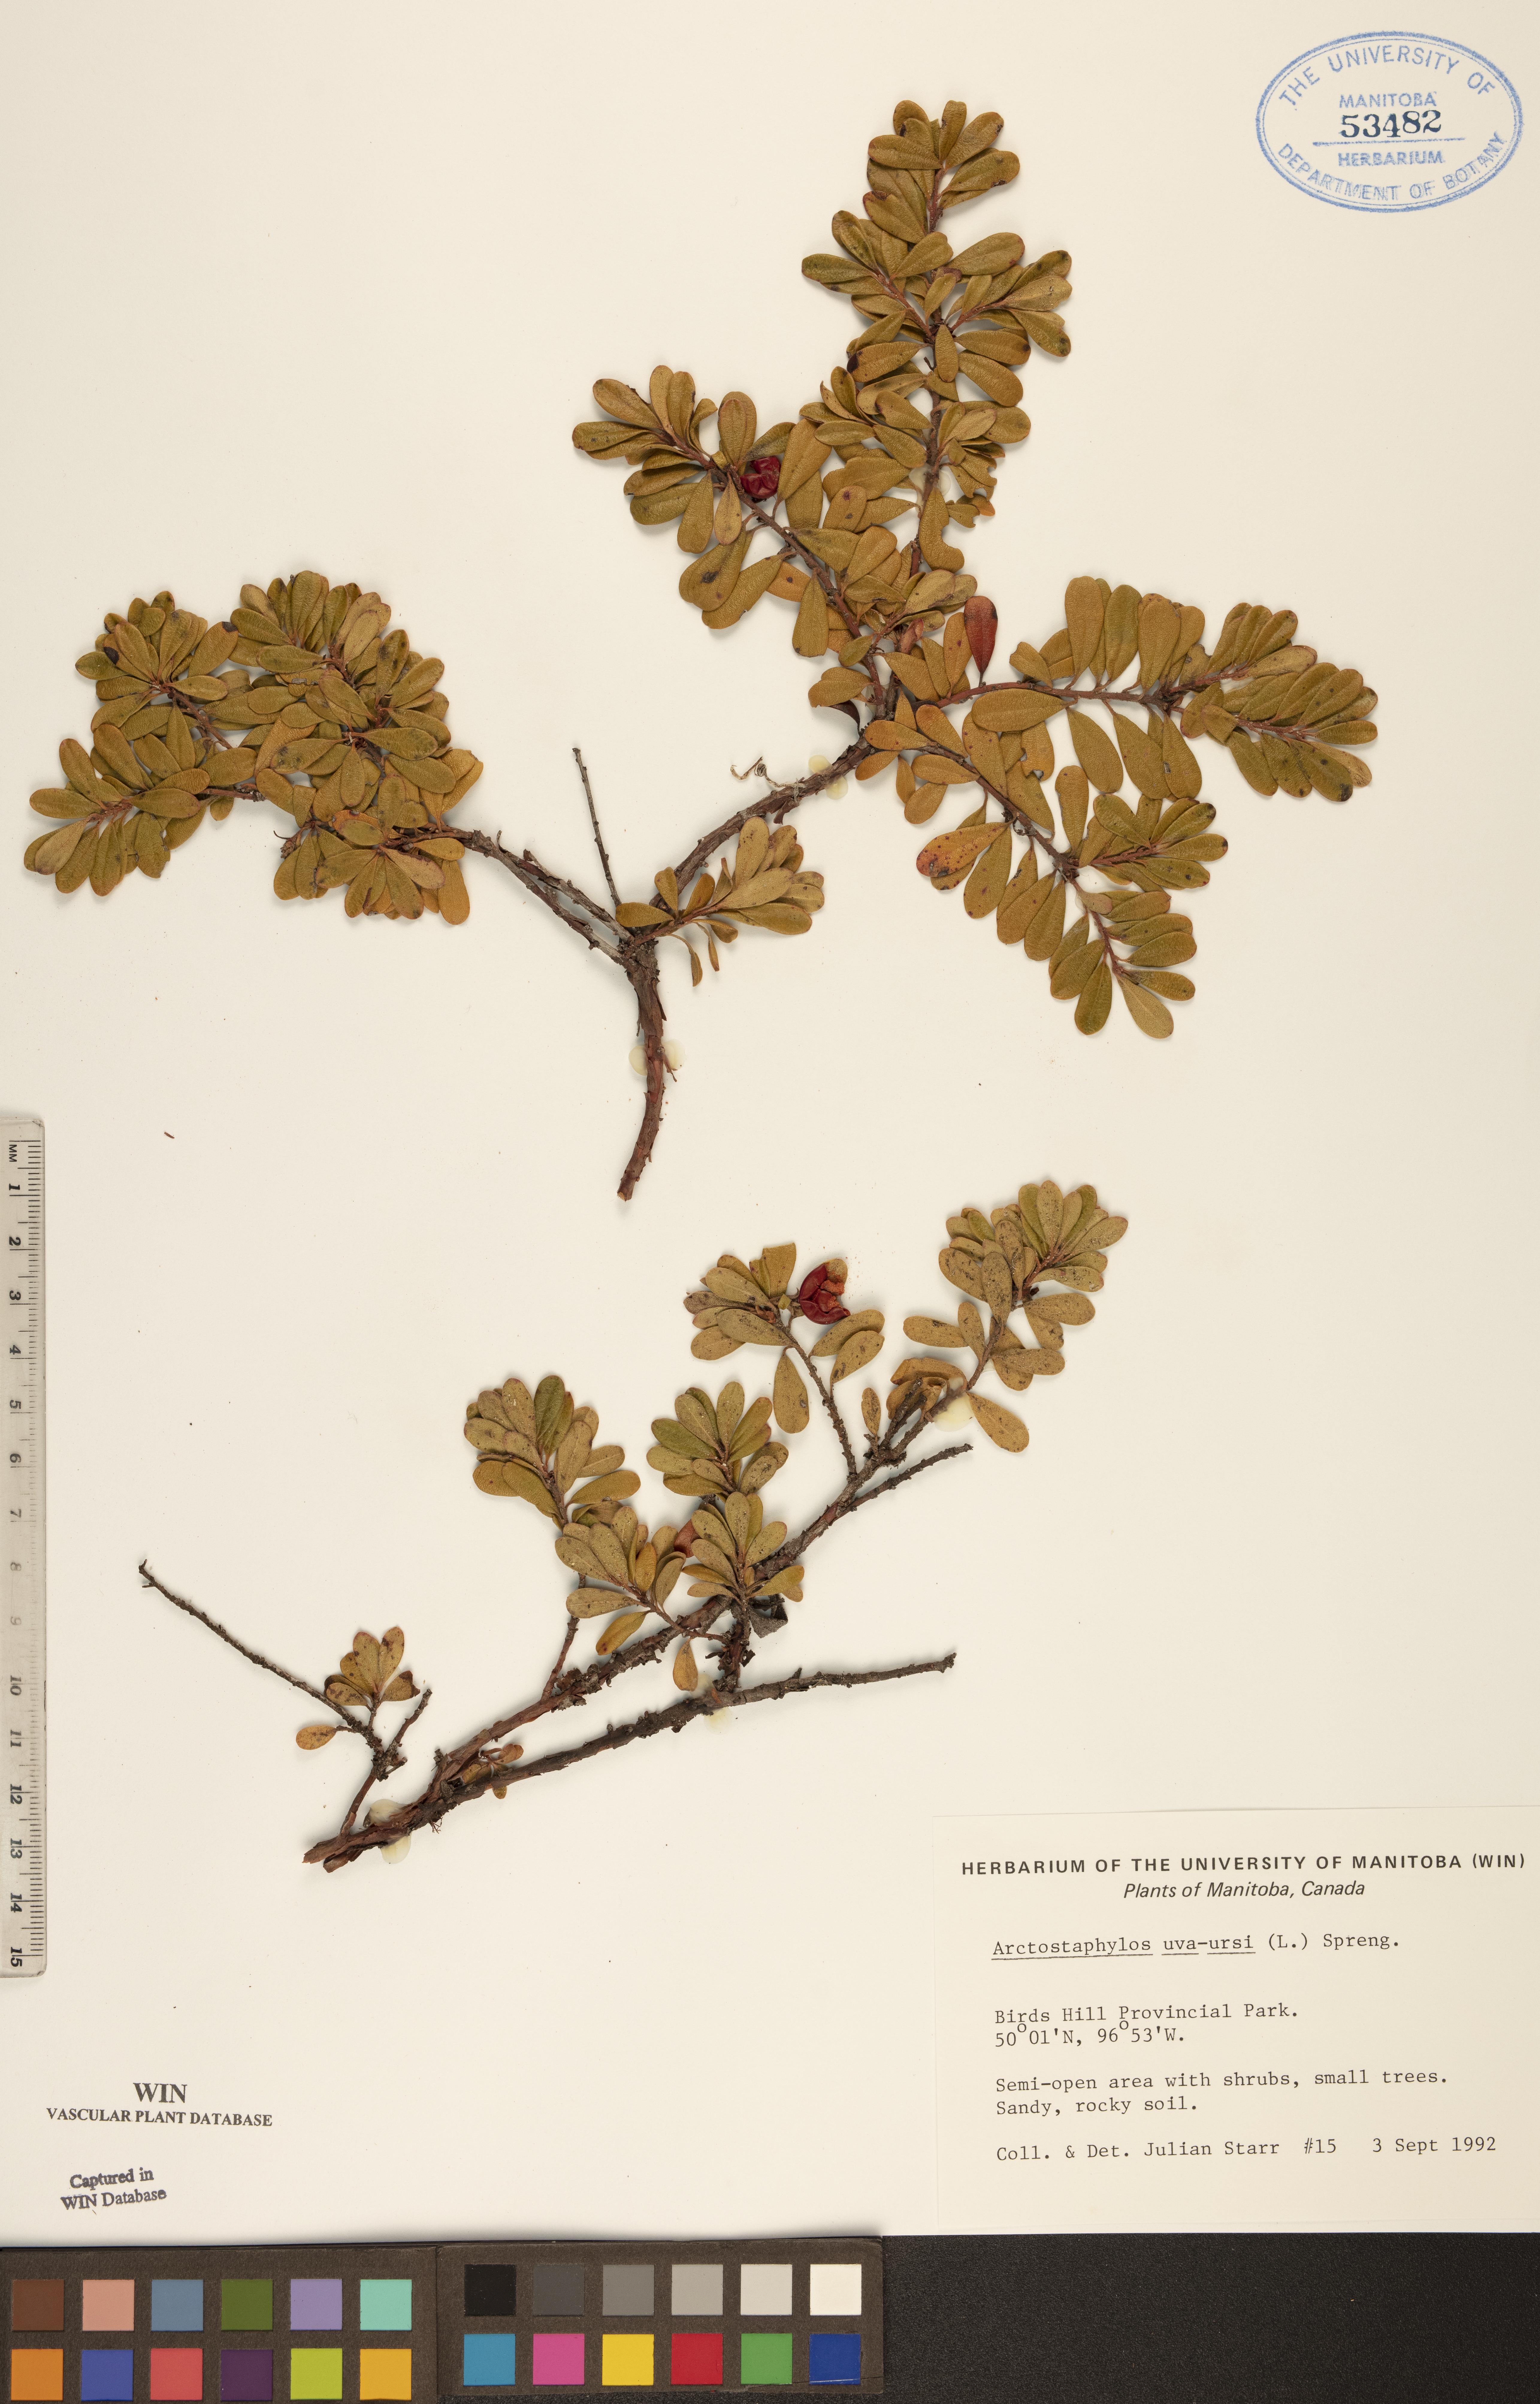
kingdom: Plantae
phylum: Tracheophyta
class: Magnoliopsida
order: Ericales
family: Ericaceae
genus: Arctostaphylos
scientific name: Arctostaphylos uva-ursi
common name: Bearberry
